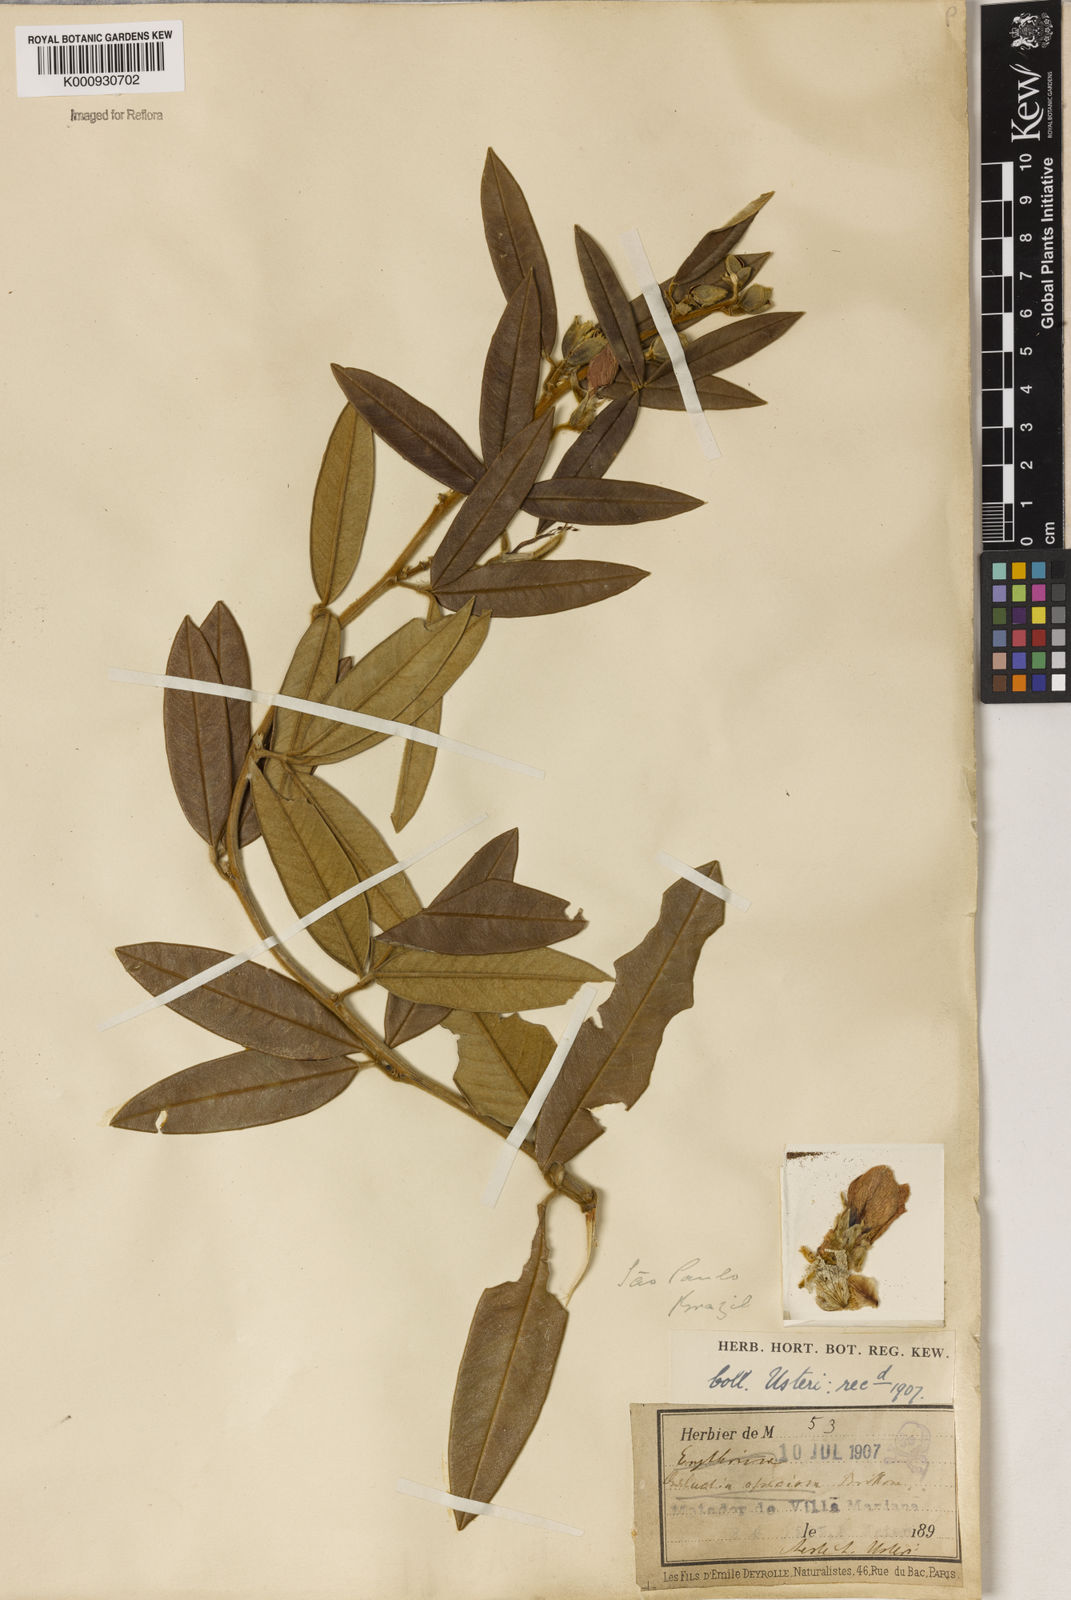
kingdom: Plantae
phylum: Tracheophyta
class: Magnoliopsida
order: Lamiales
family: Lamiaceae
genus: Coleus
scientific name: Coleus barbatus
